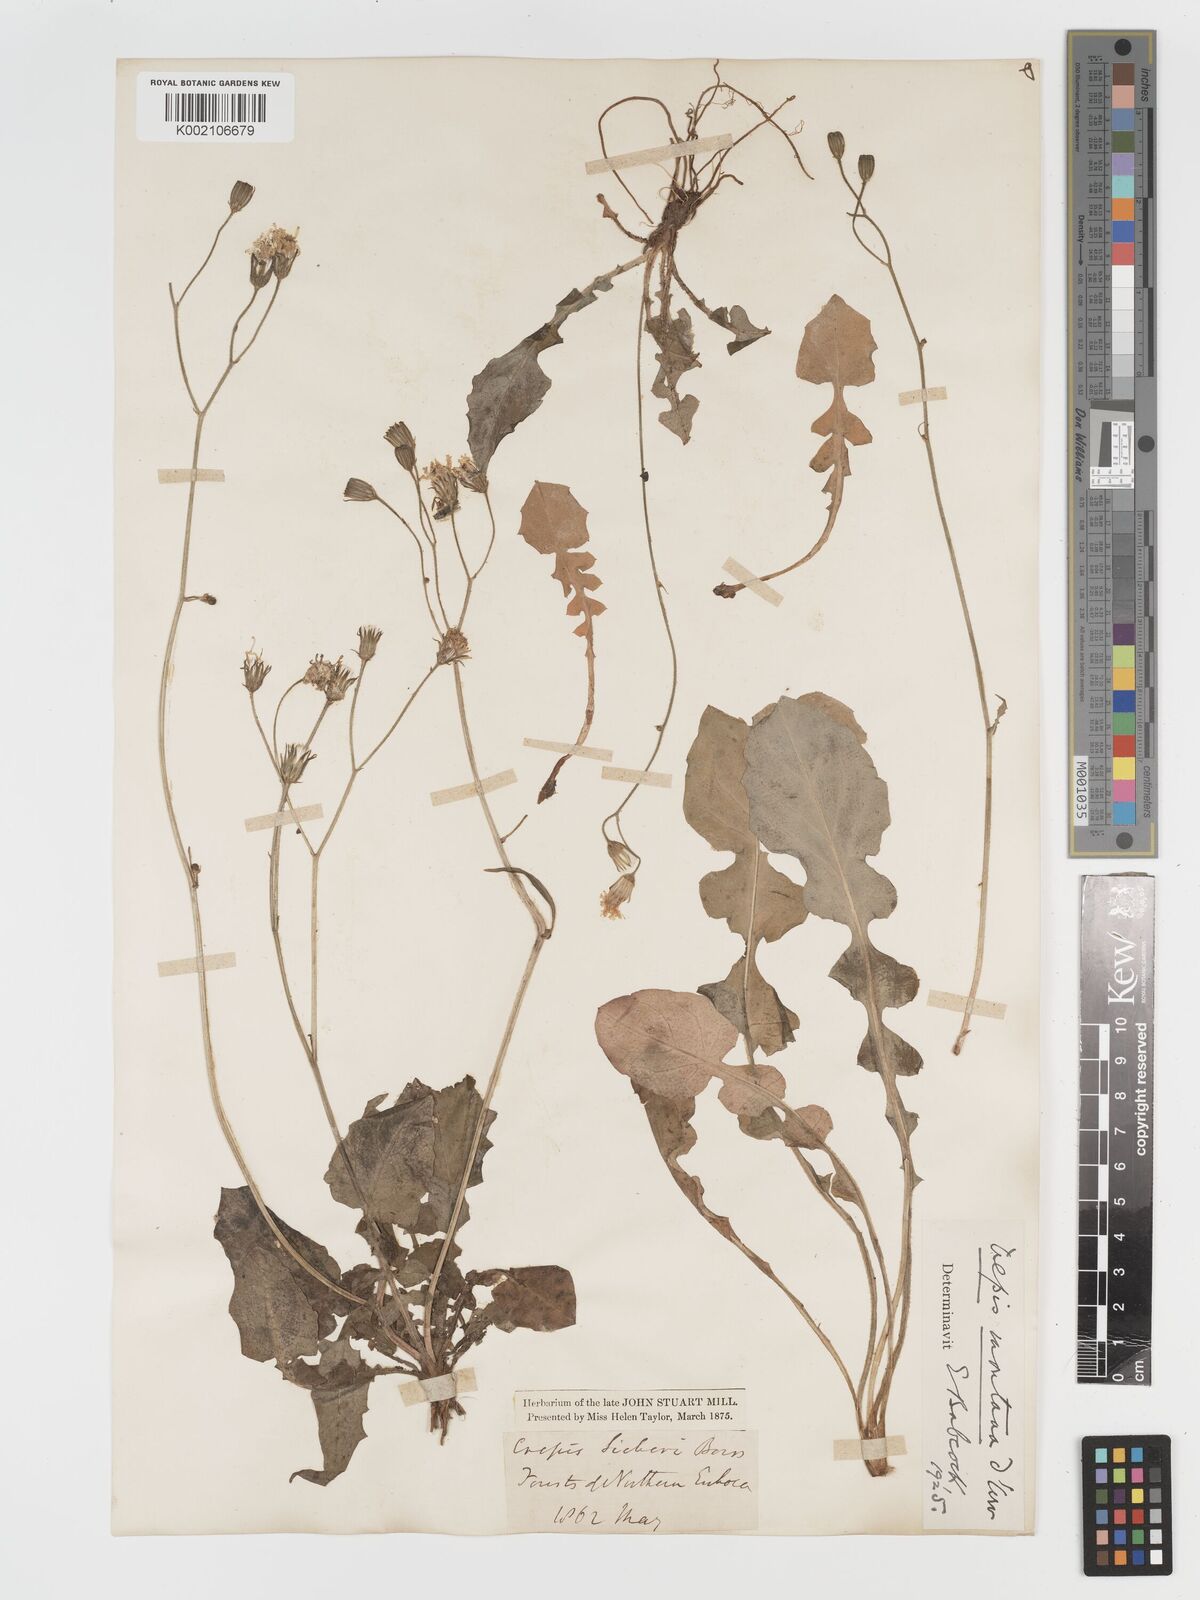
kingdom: Plantae
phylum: Tracheophyta
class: Magnoliopsida
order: Asterales
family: Asteraceae
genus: Crepis
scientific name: Crepis
